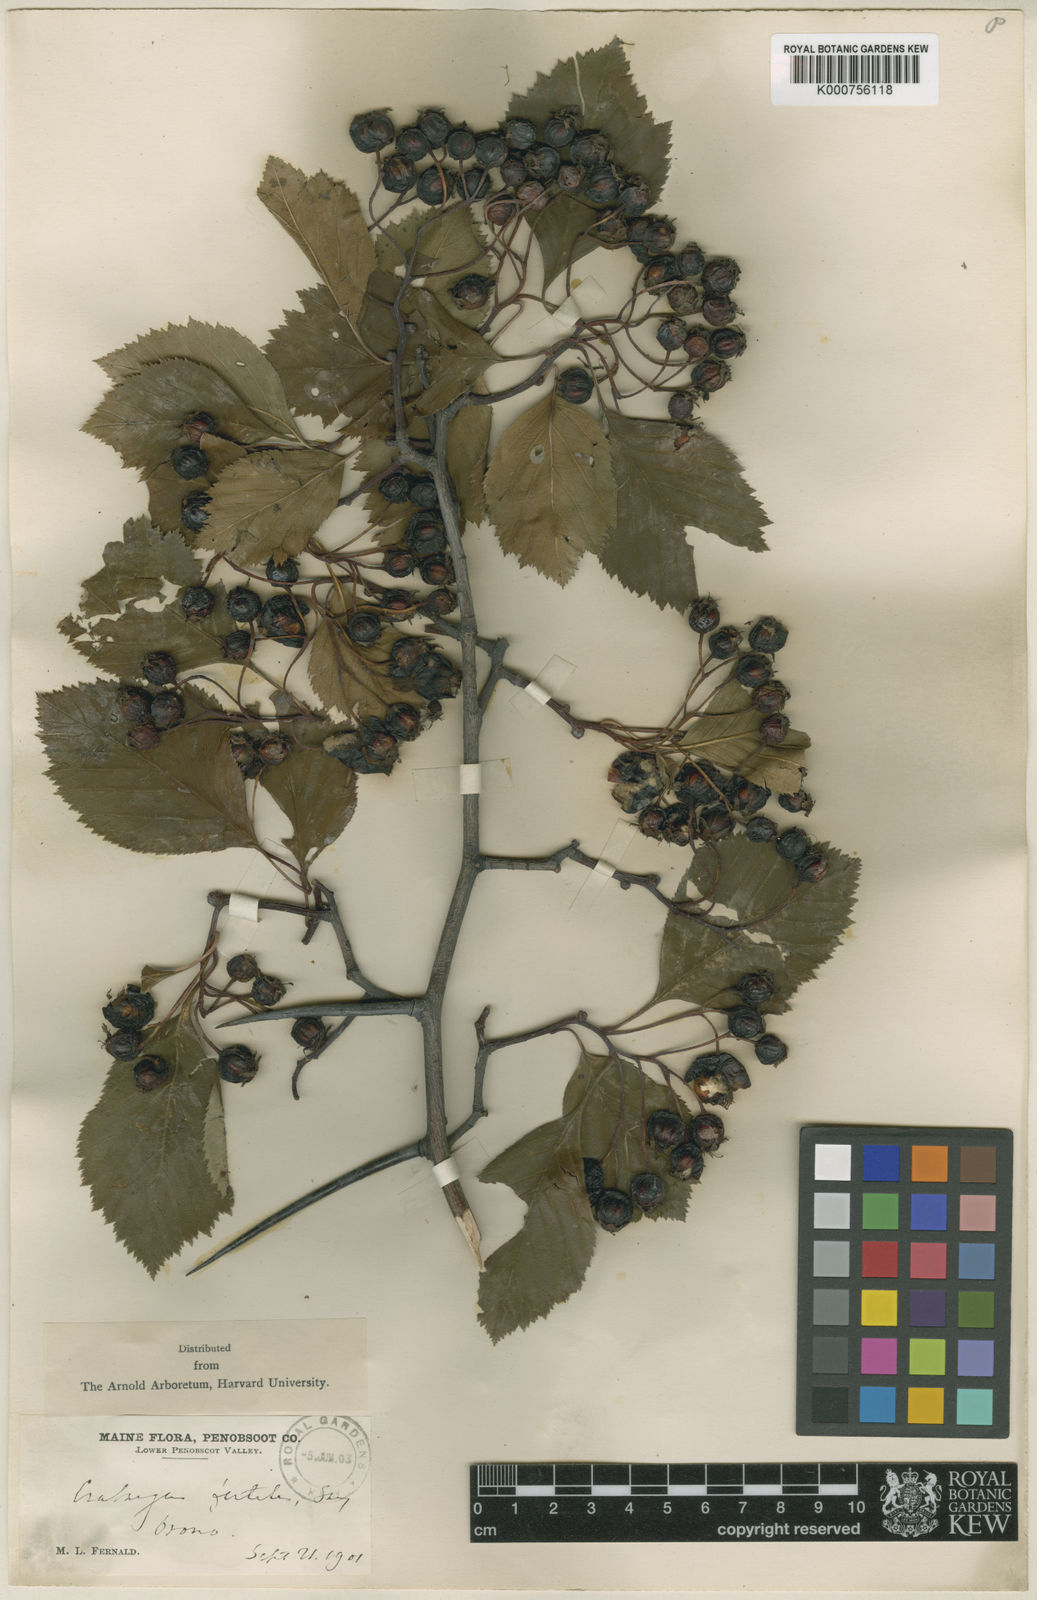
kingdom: Plantae
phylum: Tracheophyta
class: Magnoliopsida
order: Rosales
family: Rosaceae
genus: Crataegus
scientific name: Crataegus fertilis
